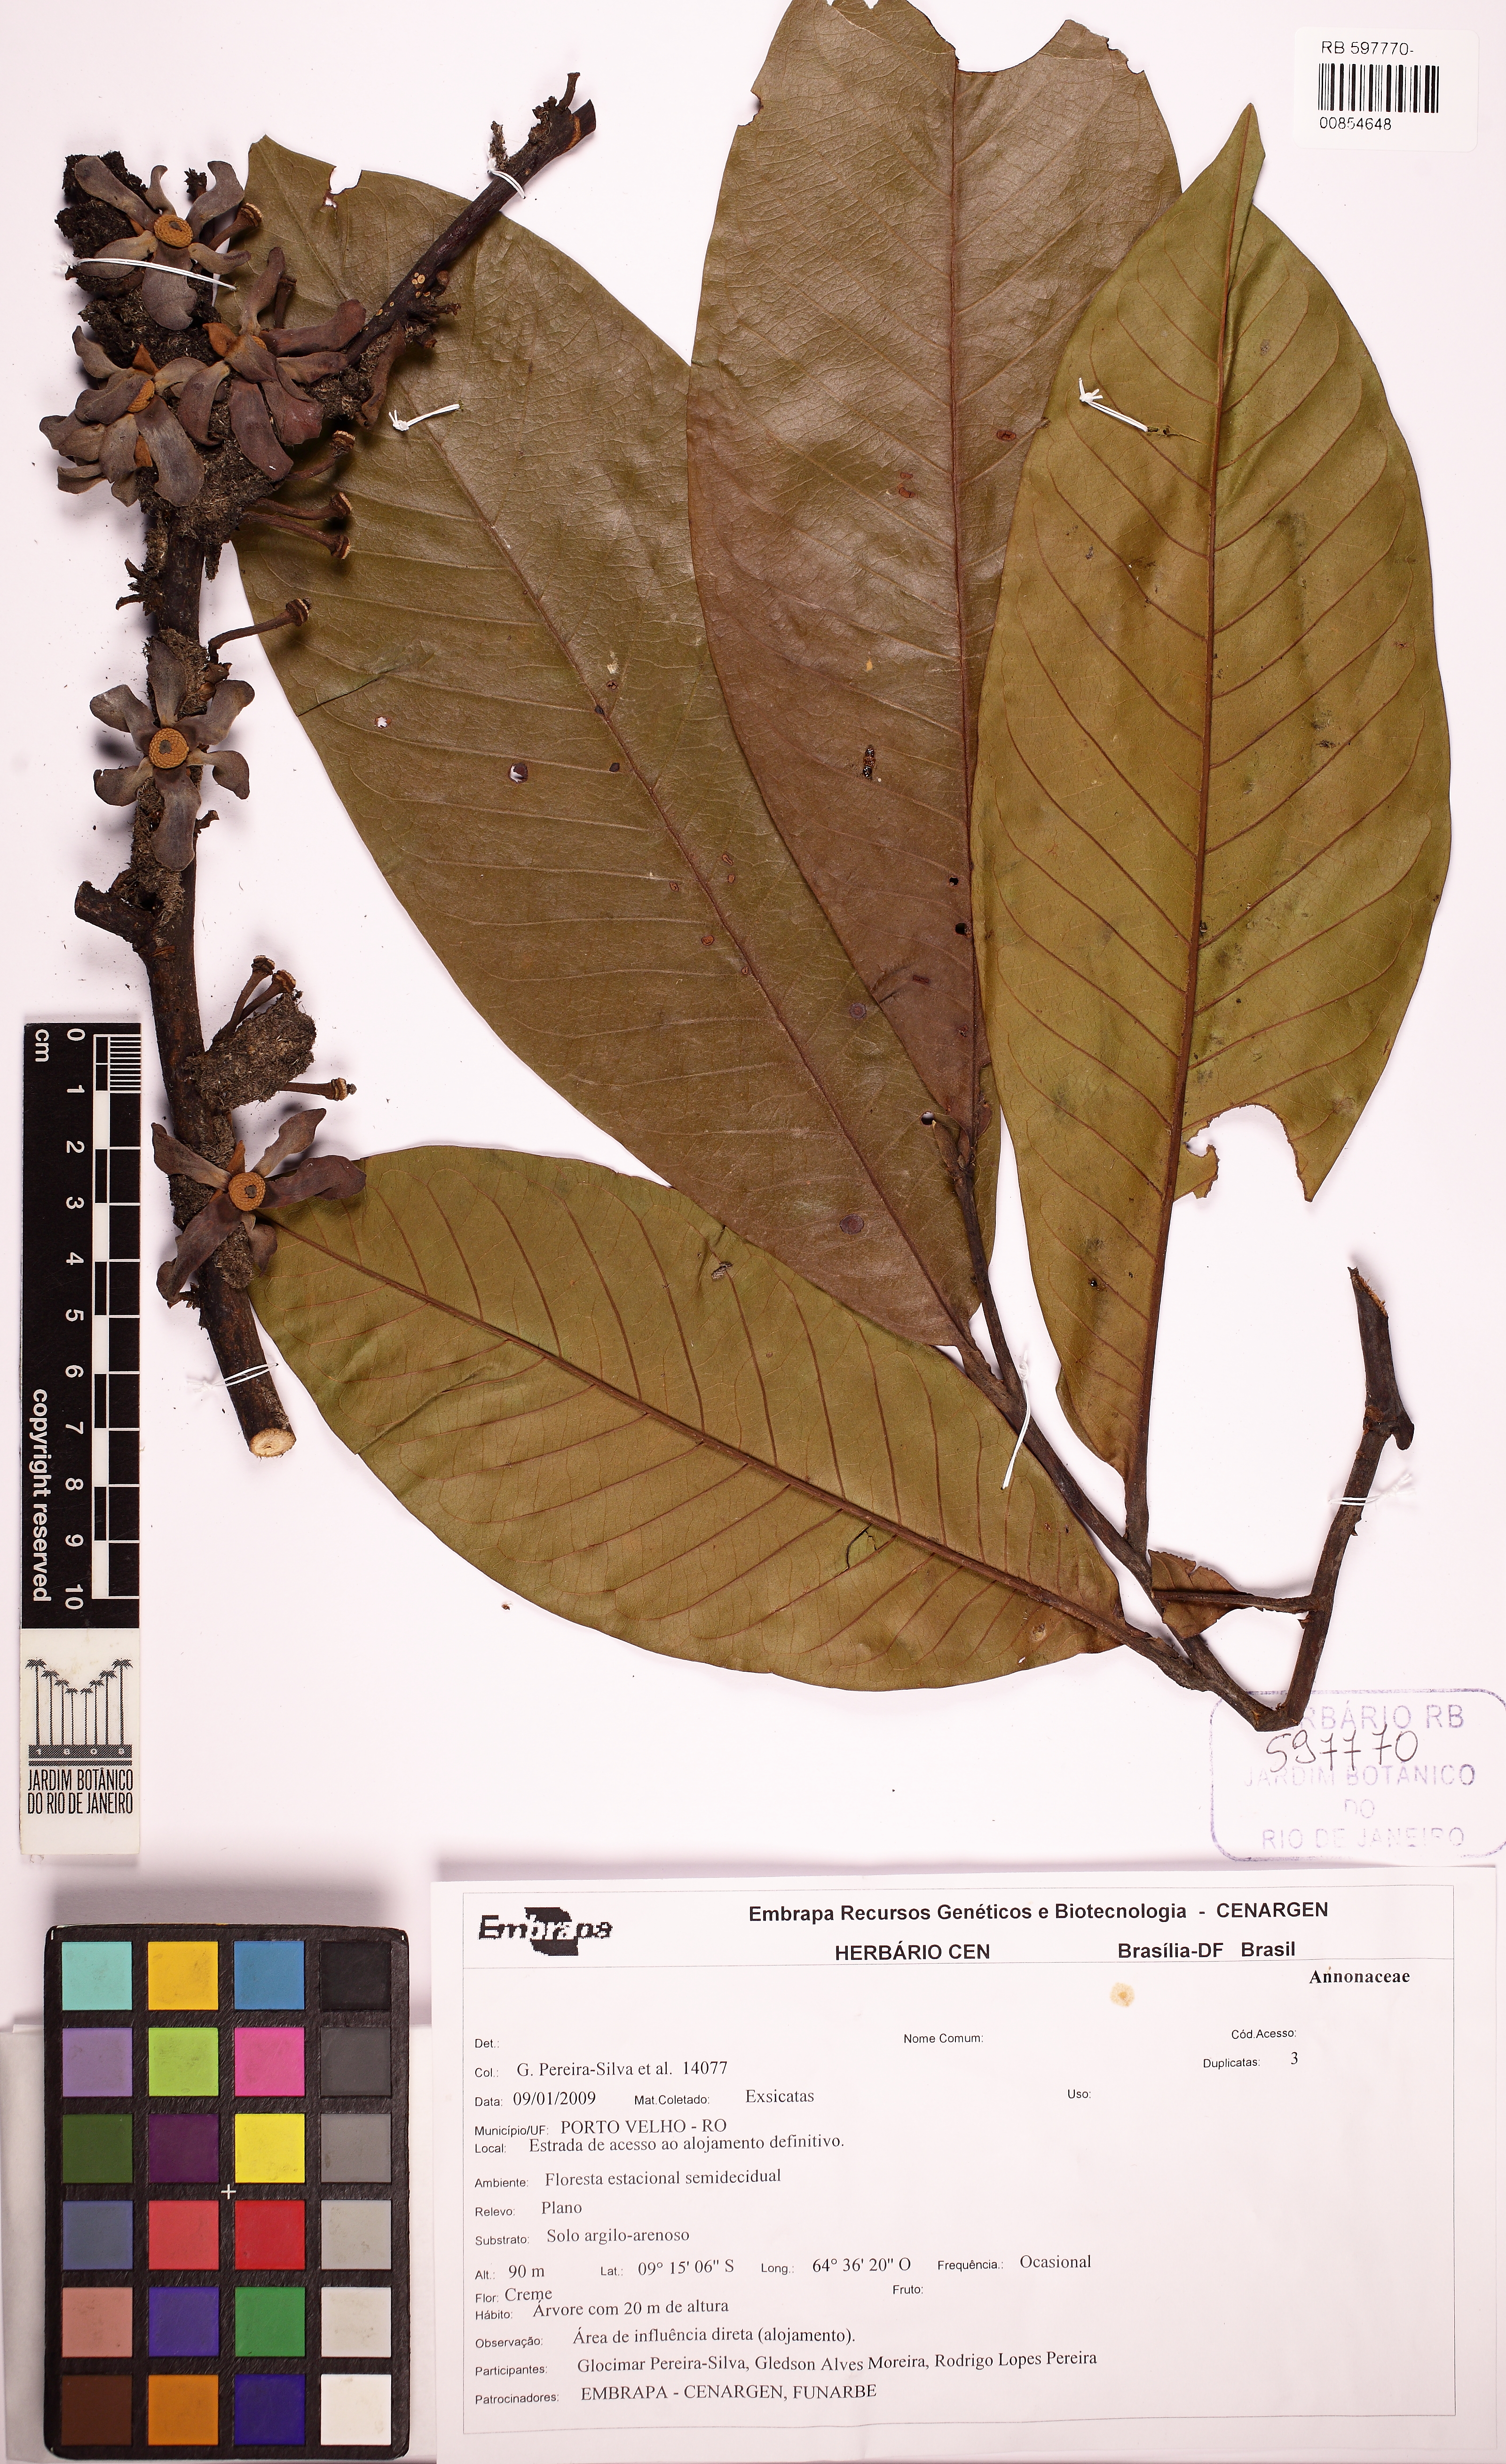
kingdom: Plantae
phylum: Tracheophyta
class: Magnoliopsida
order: Magnoliales
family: Annonaceae
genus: Guatteria
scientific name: Guatteria
